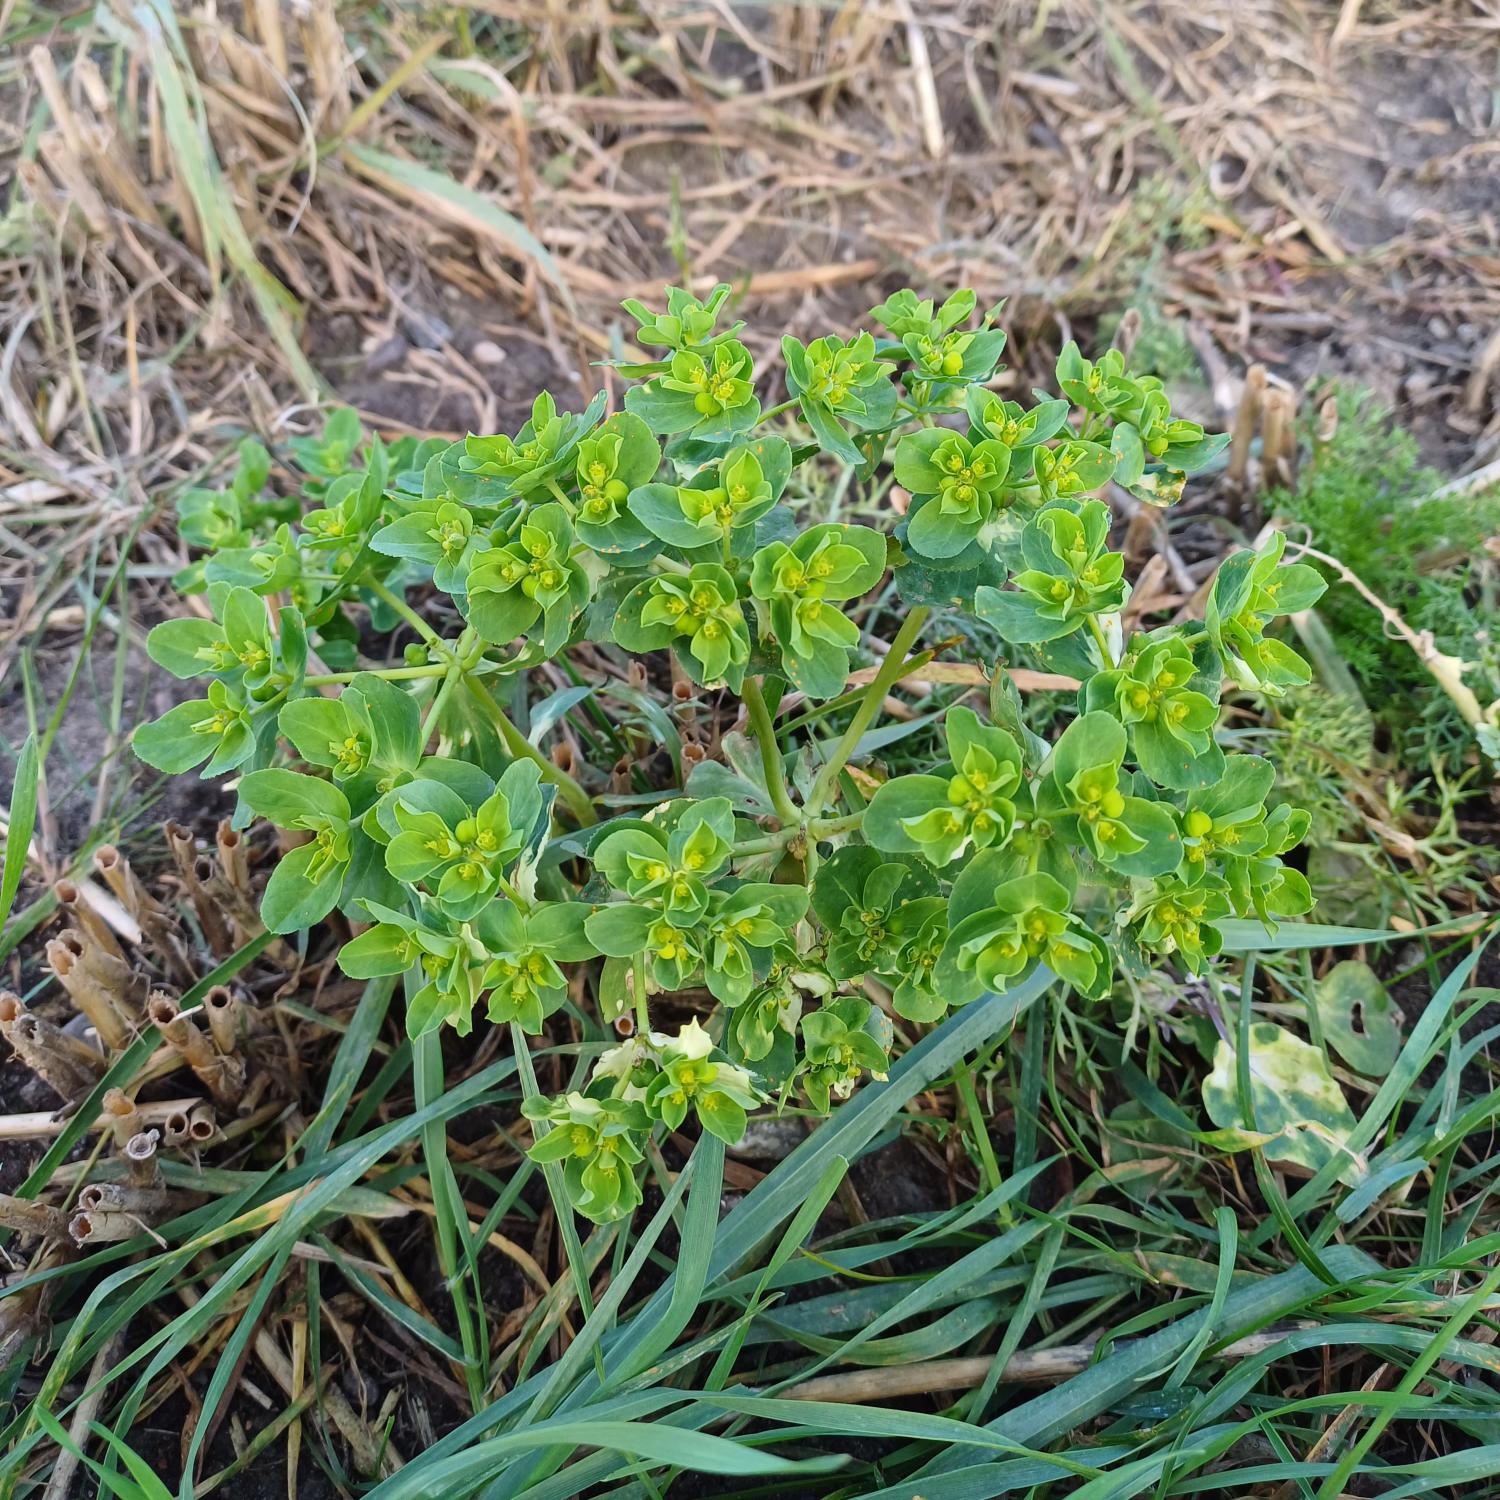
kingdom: Plantae
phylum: Tracheophyta
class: Magnoliopsida
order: Malpighiales
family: Euphorbiaceae
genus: Euphorbia
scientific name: Euphorbia helioscopia
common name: Skærm-vortemælk
